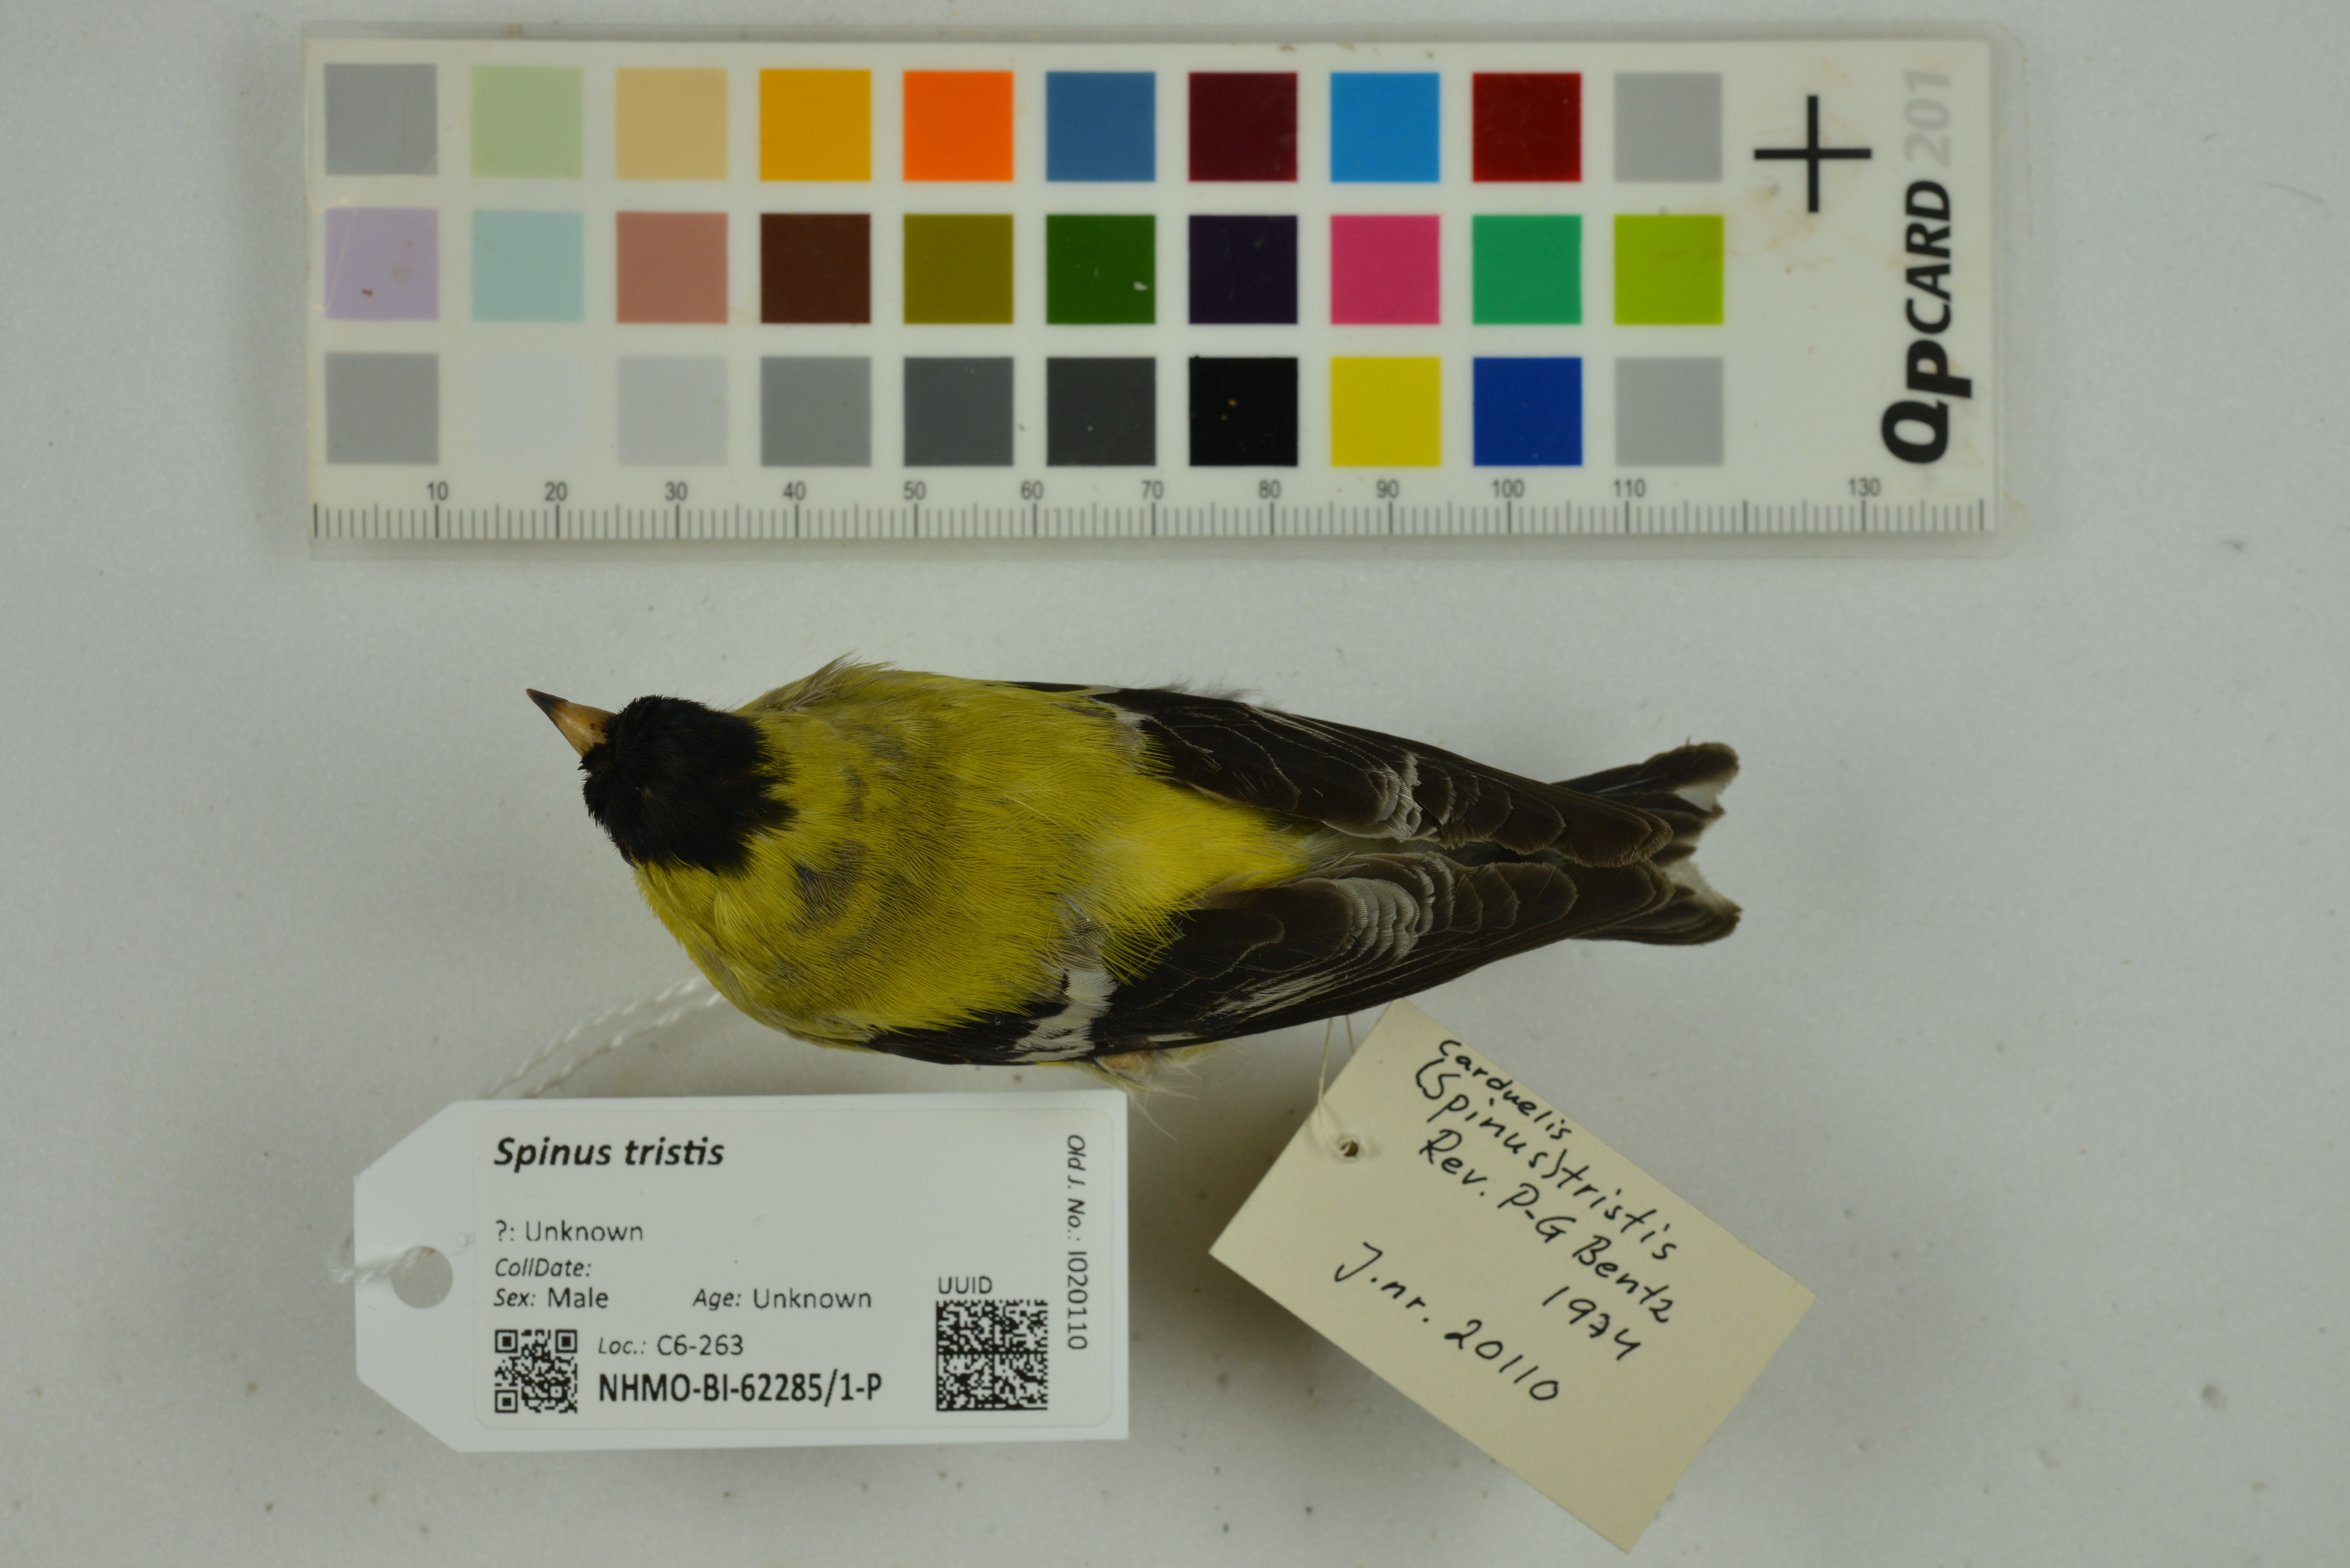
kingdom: Animalia
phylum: Chordata
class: Aves
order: Passeriformes
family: Fringillidae
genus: Spinus
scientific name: Spinus tristis
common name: American goldfinch
